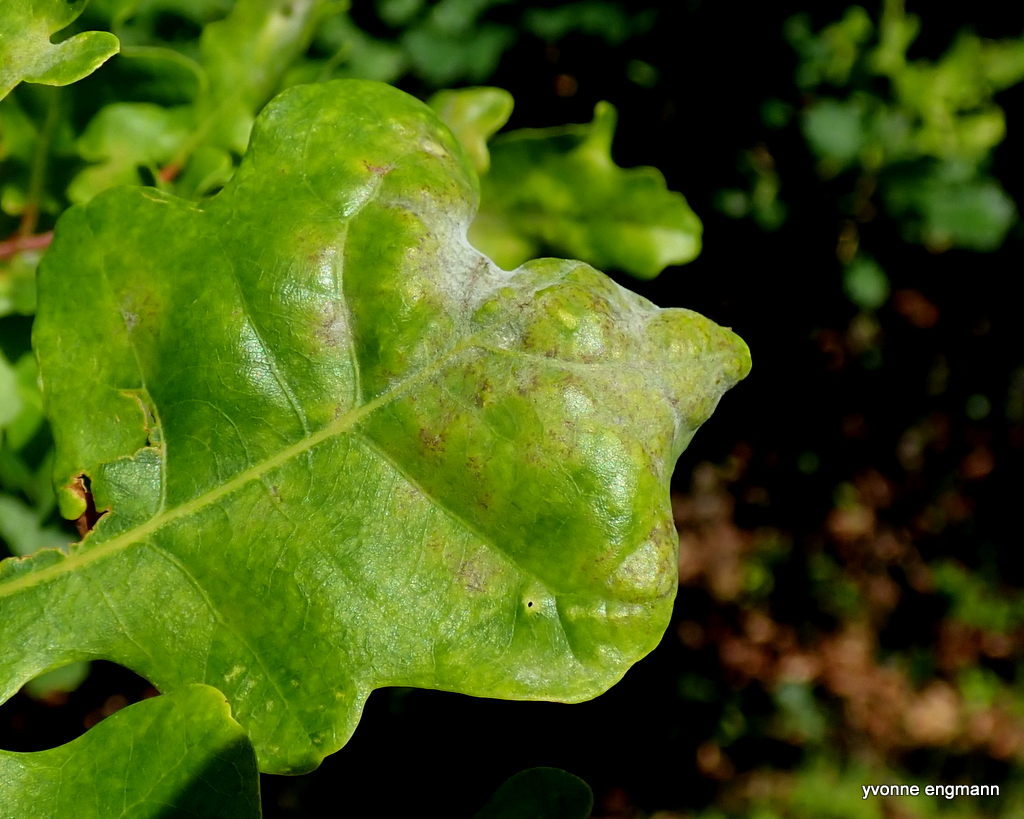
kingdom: Fungi
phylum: Ascomycota
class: Leotiomycetes
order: Helotiales
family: Erysiphaceae
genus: Erysiphe
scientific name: Erysiphe alphitoides
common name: ege-meldug
